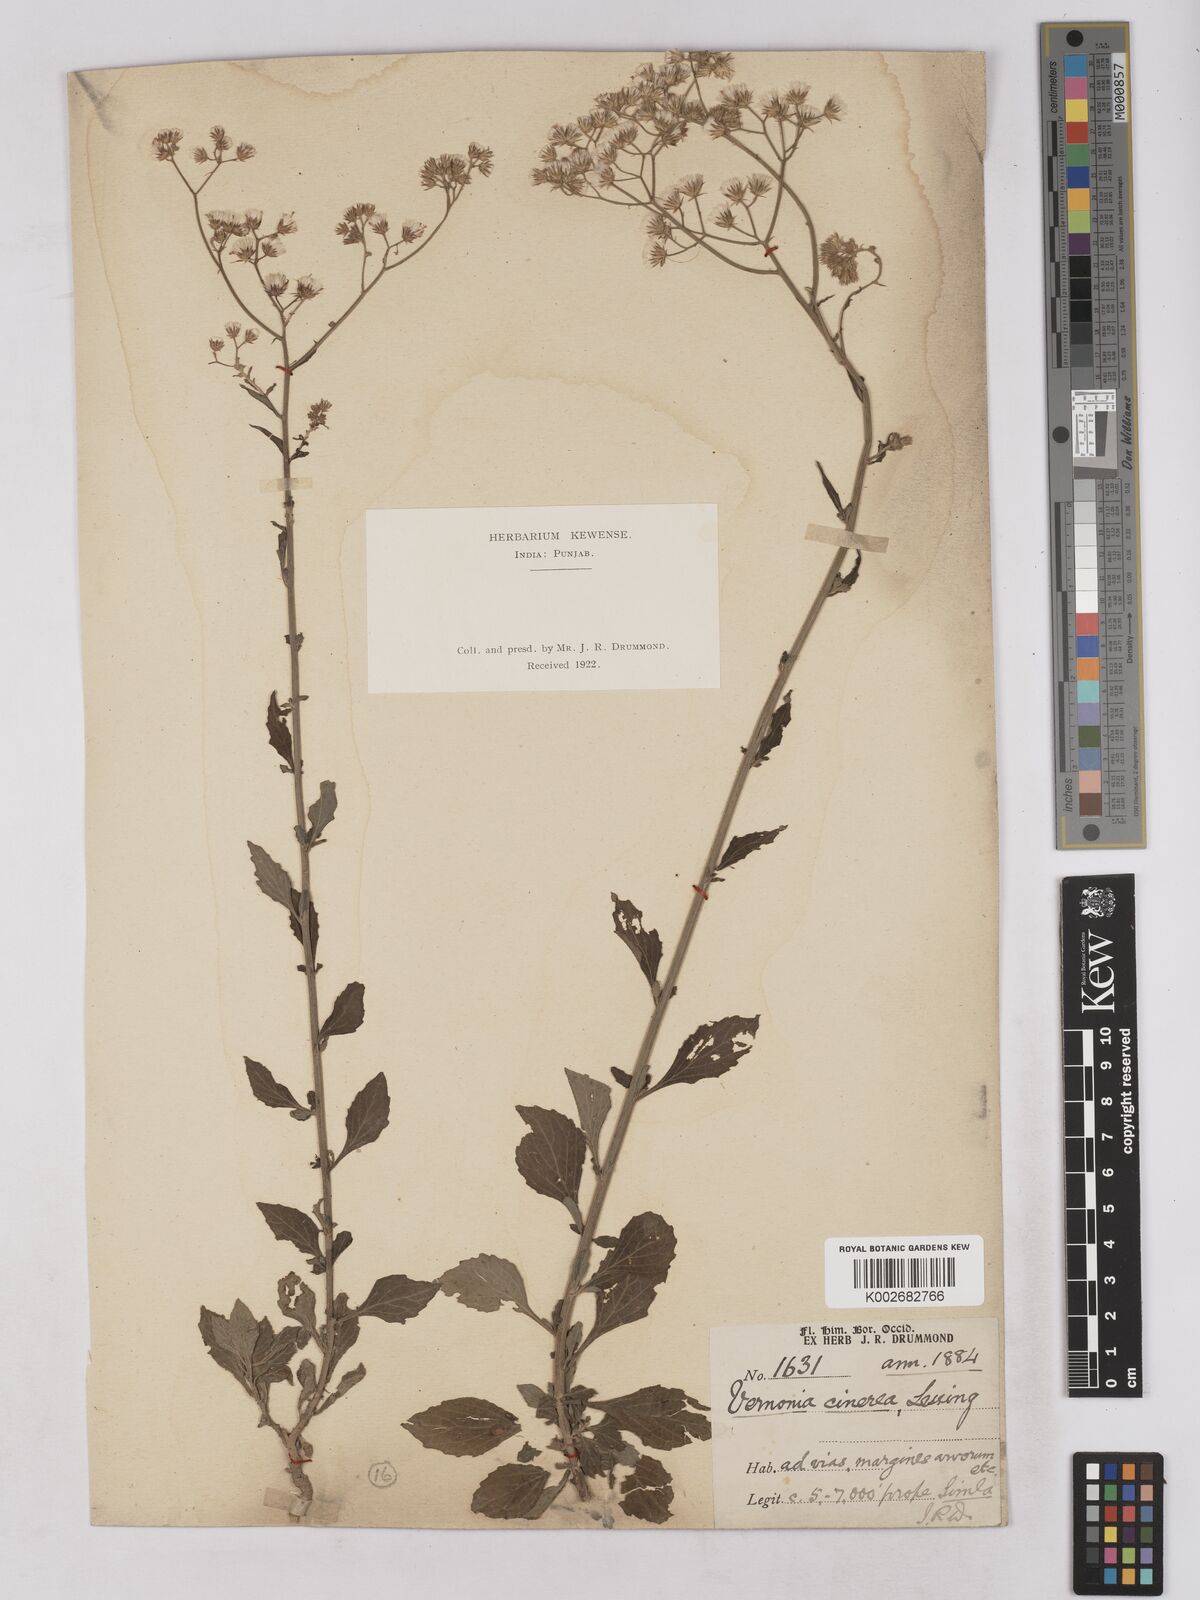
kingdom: Plantae
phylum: Tracheophyta
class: Magnoliopsida
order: Asterales
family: Asteraceae
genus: Cyanthillium
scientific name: Cyanthillium cinereum
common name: Little ironweed
